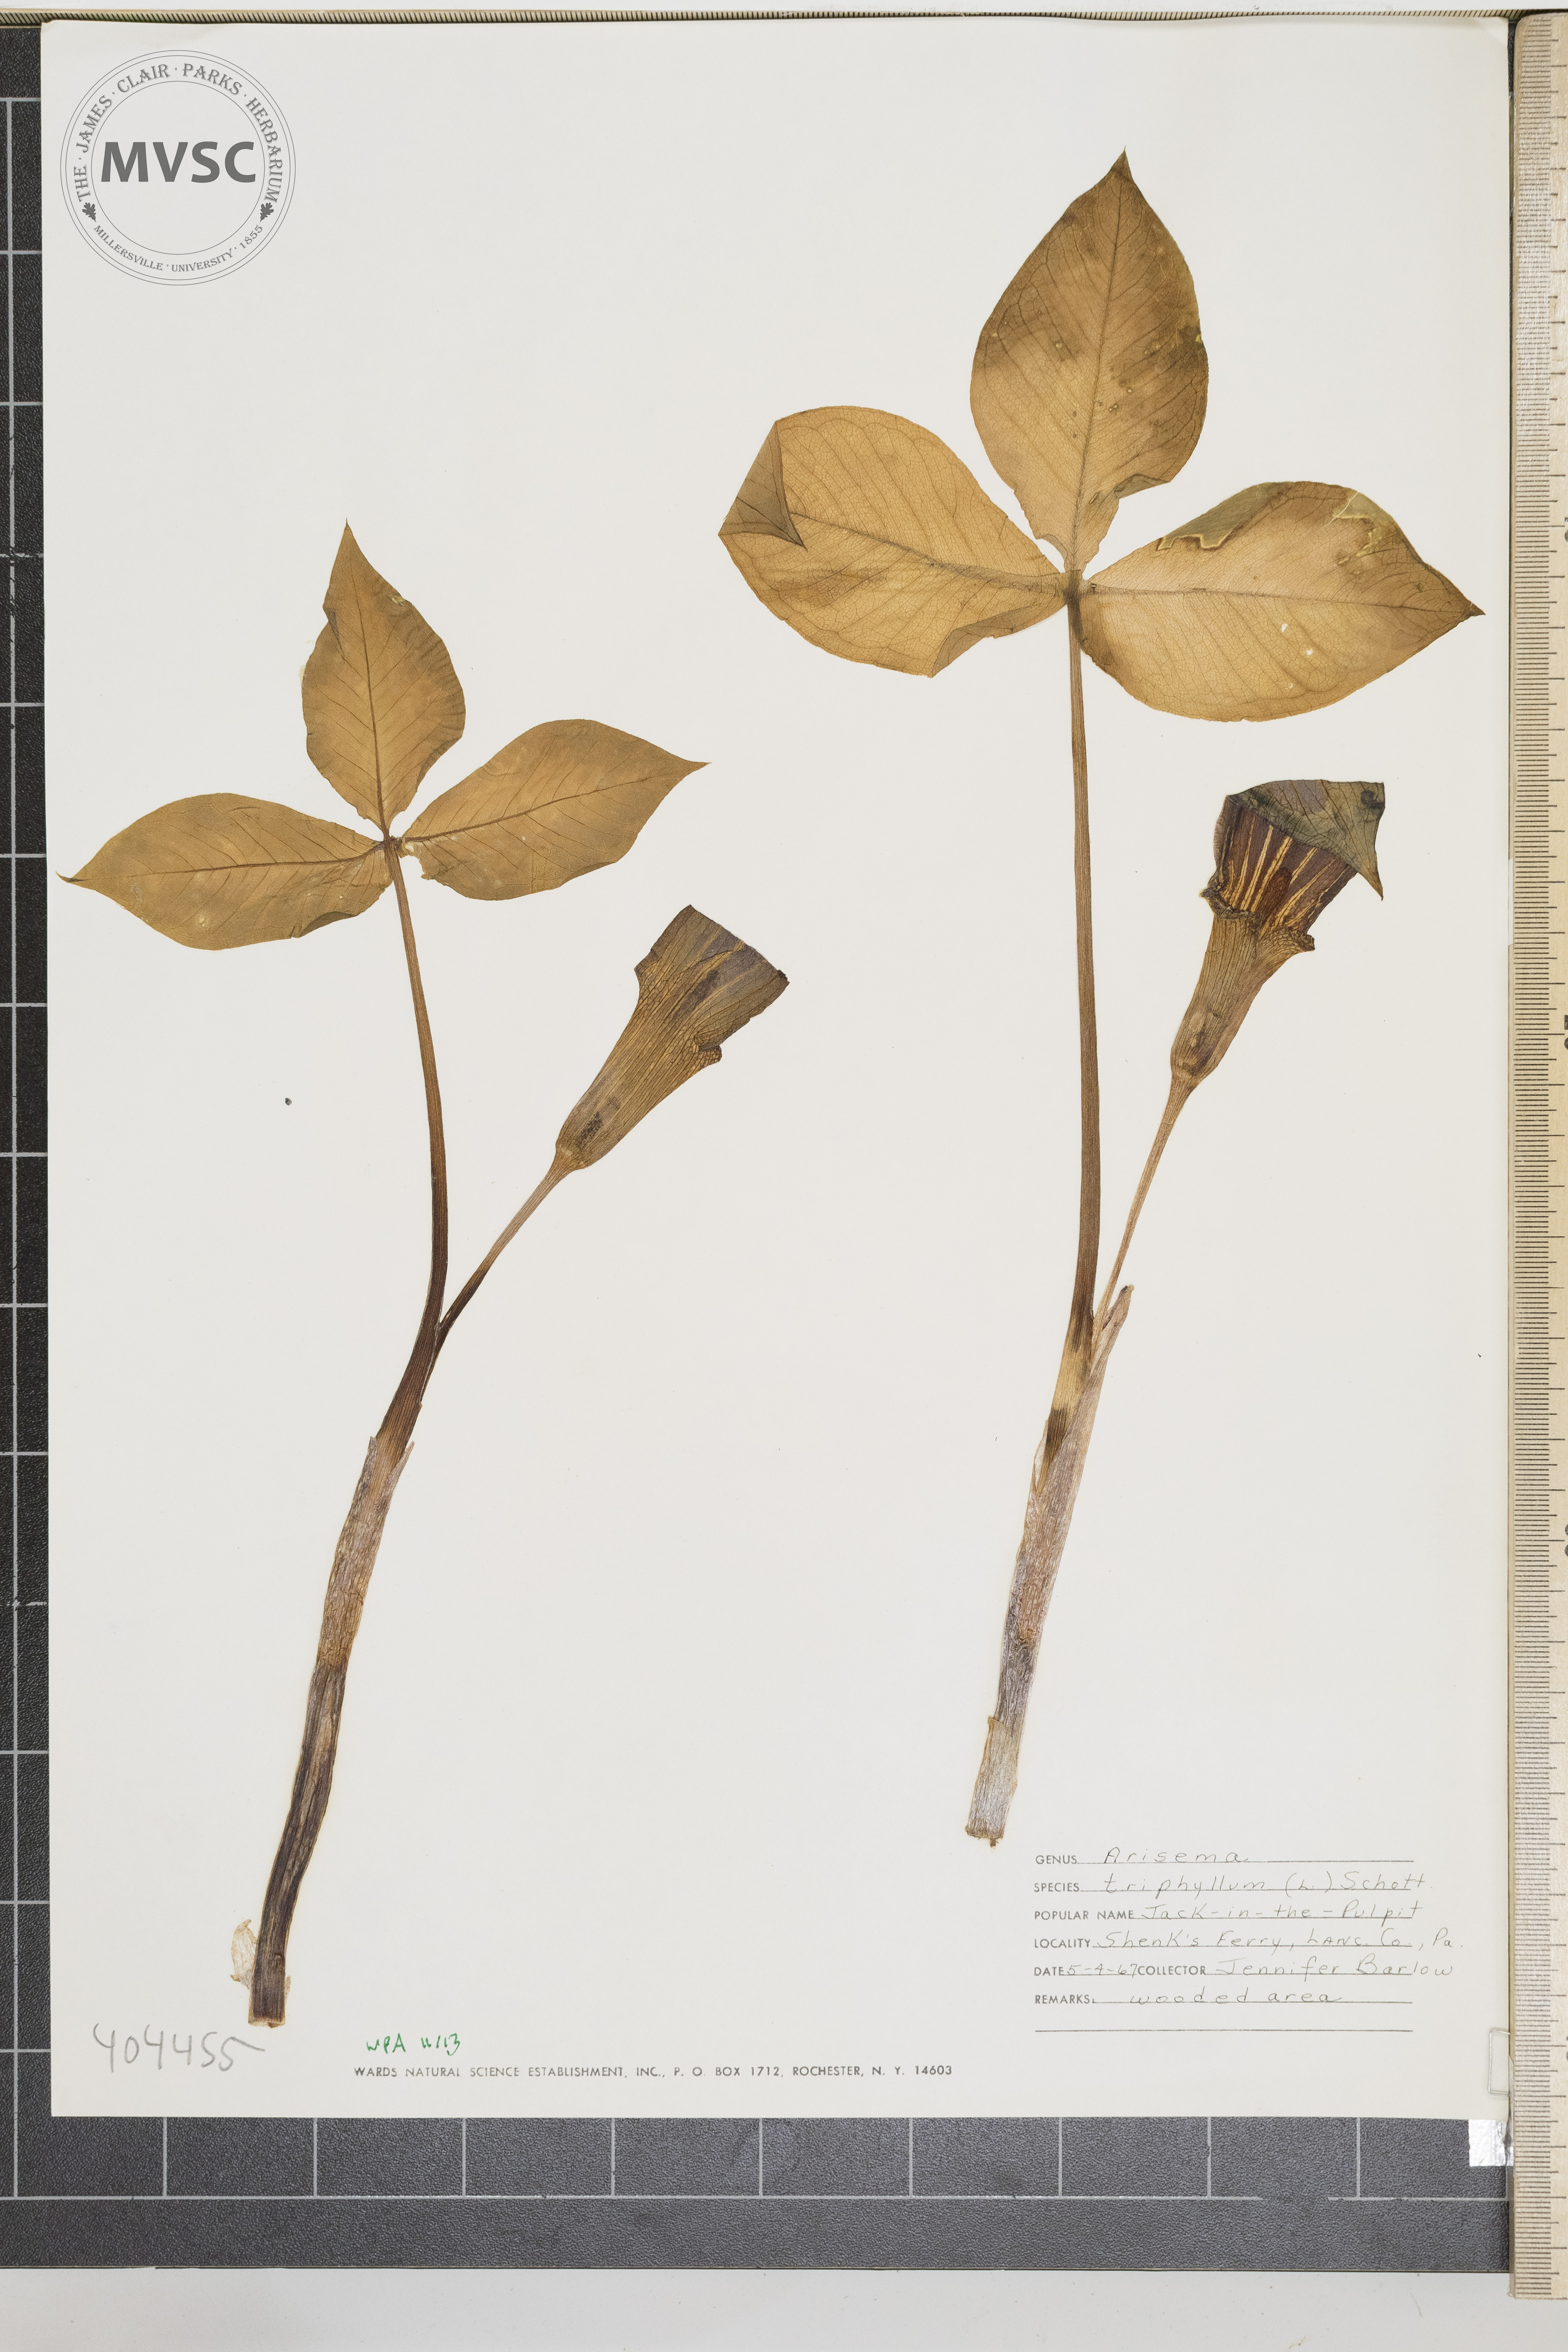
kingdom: Plantae
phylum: Tracheophyta
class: Liliopsida
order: Alismatales
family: Araceae
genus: Arisaema
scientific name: Arisaema triphyllum
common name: Jack-in-the-Pulpit
